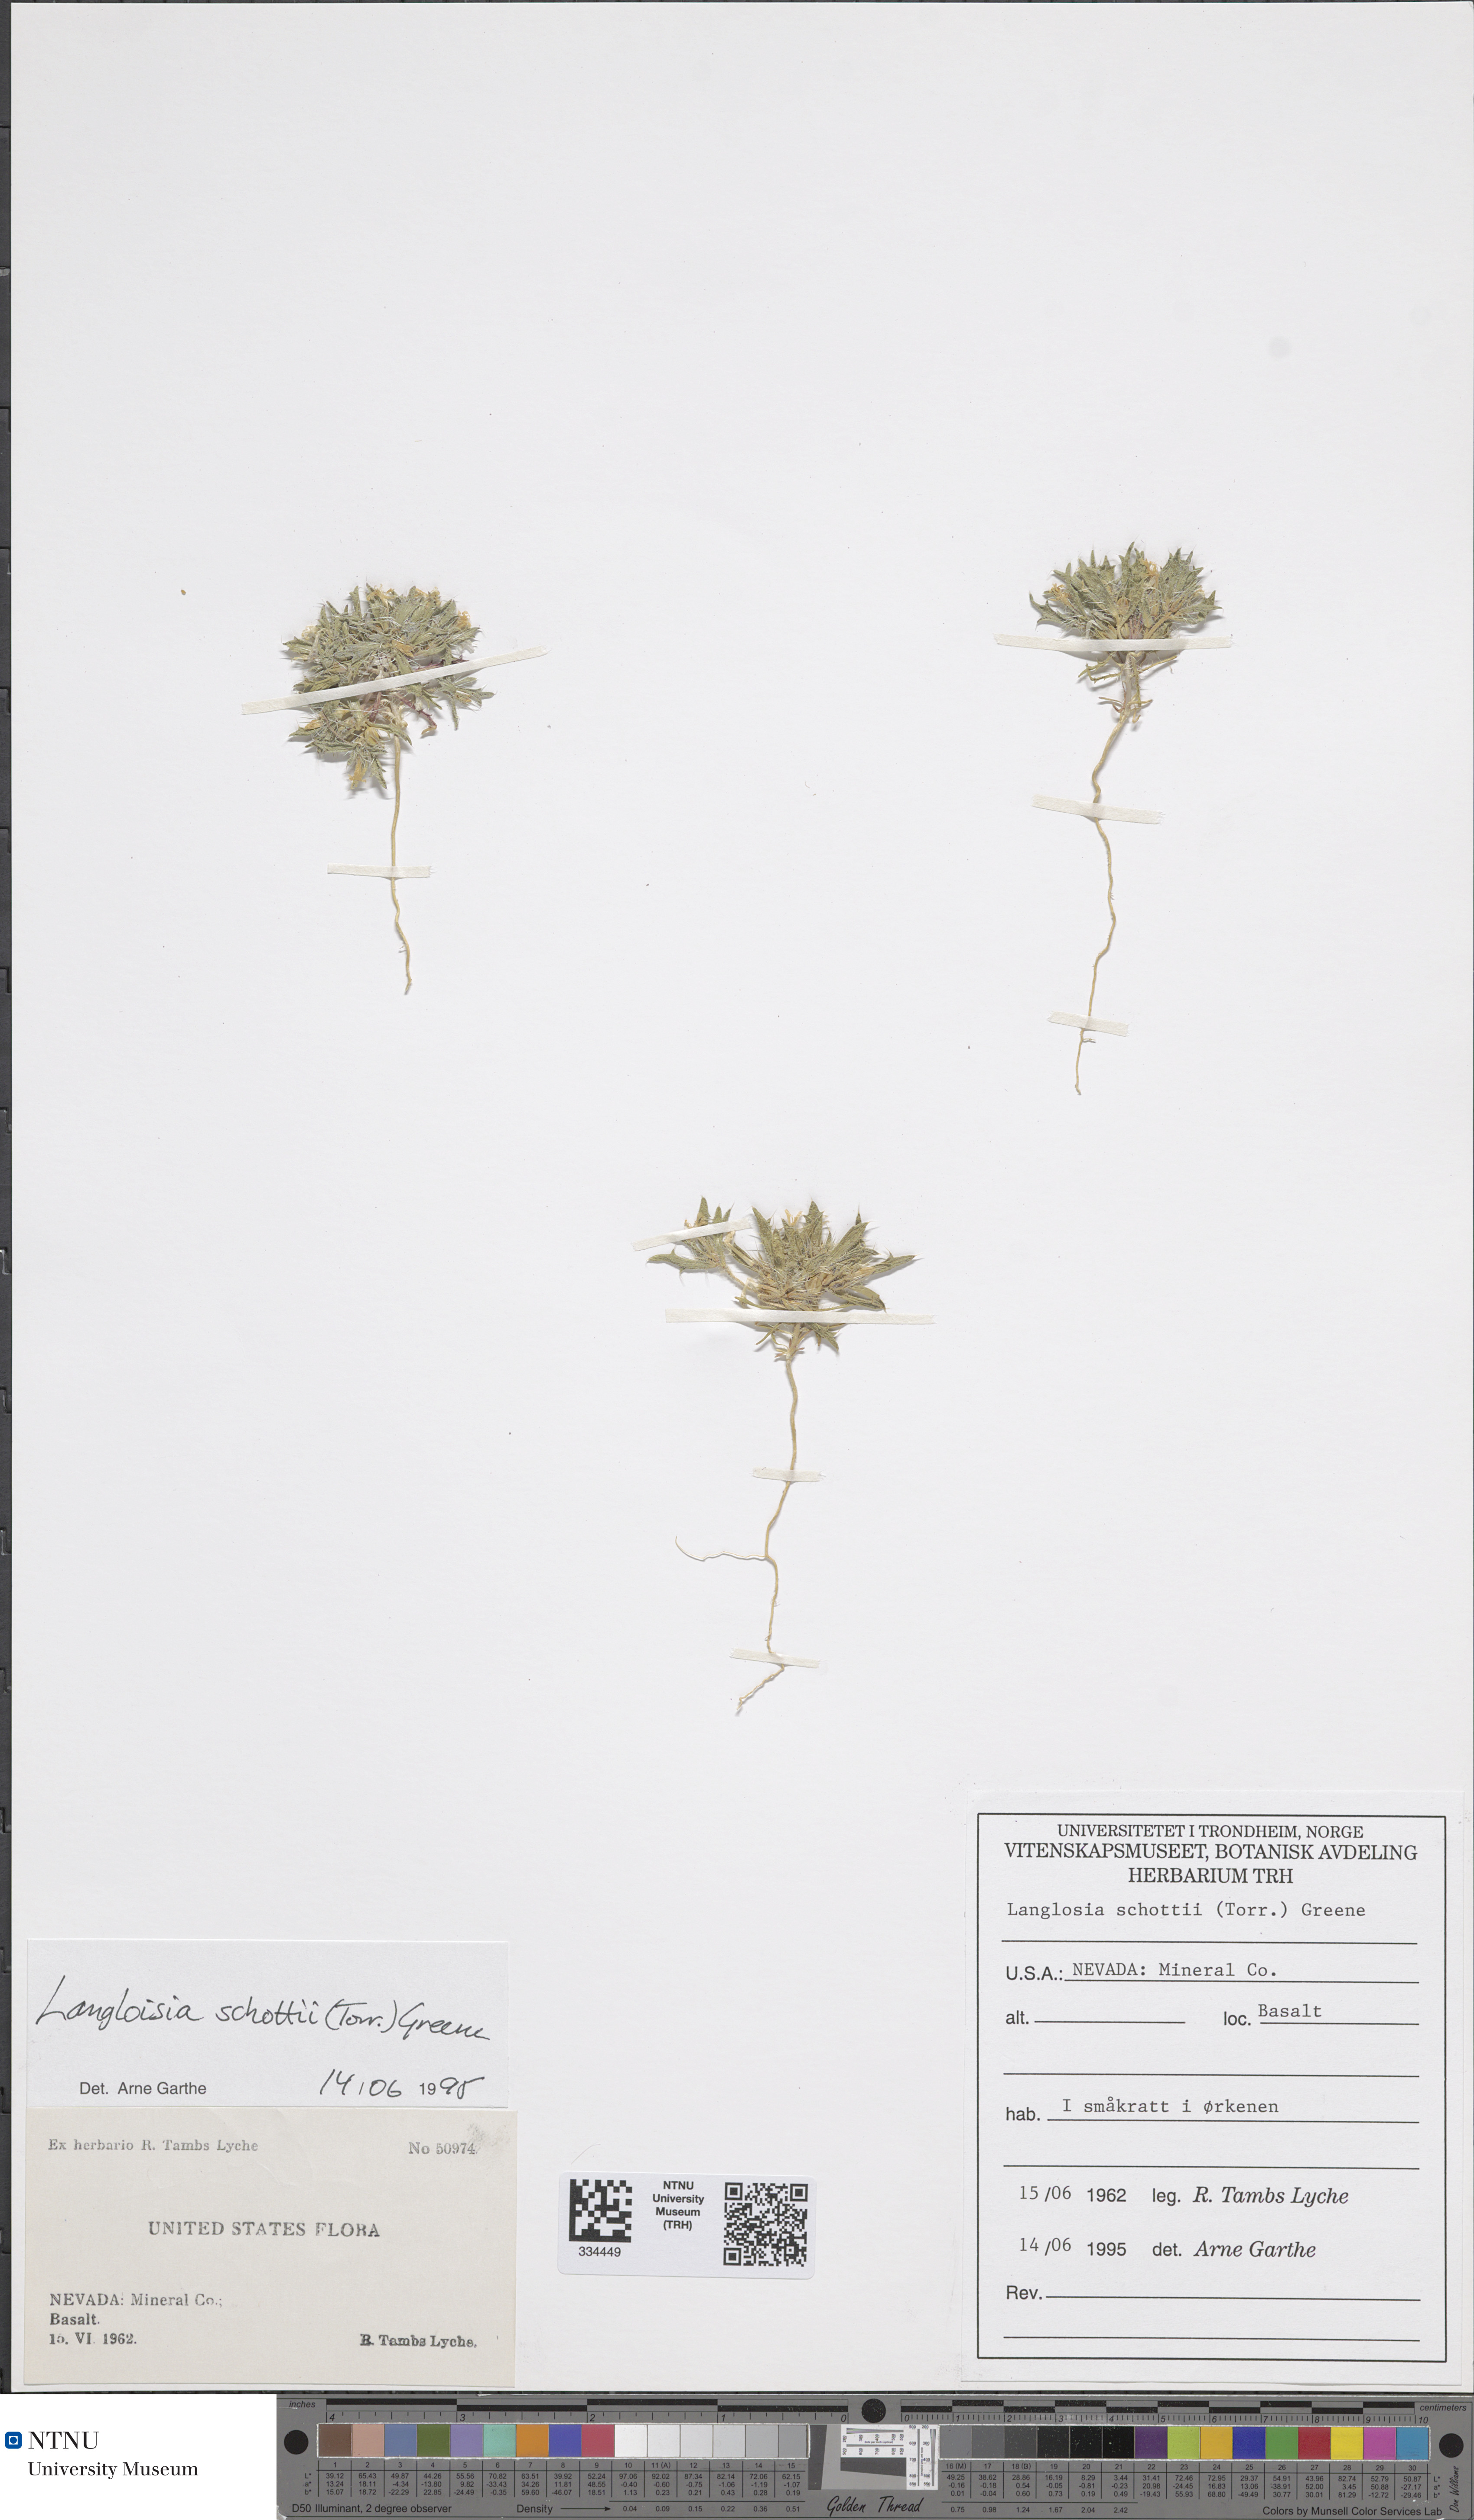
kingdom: Plantae
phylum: Tracheophyta
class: Magnoliopsida
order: Ericales
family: Polemoniaceae
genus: Loeseliastrum
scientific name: Loeseliastrum schottii
